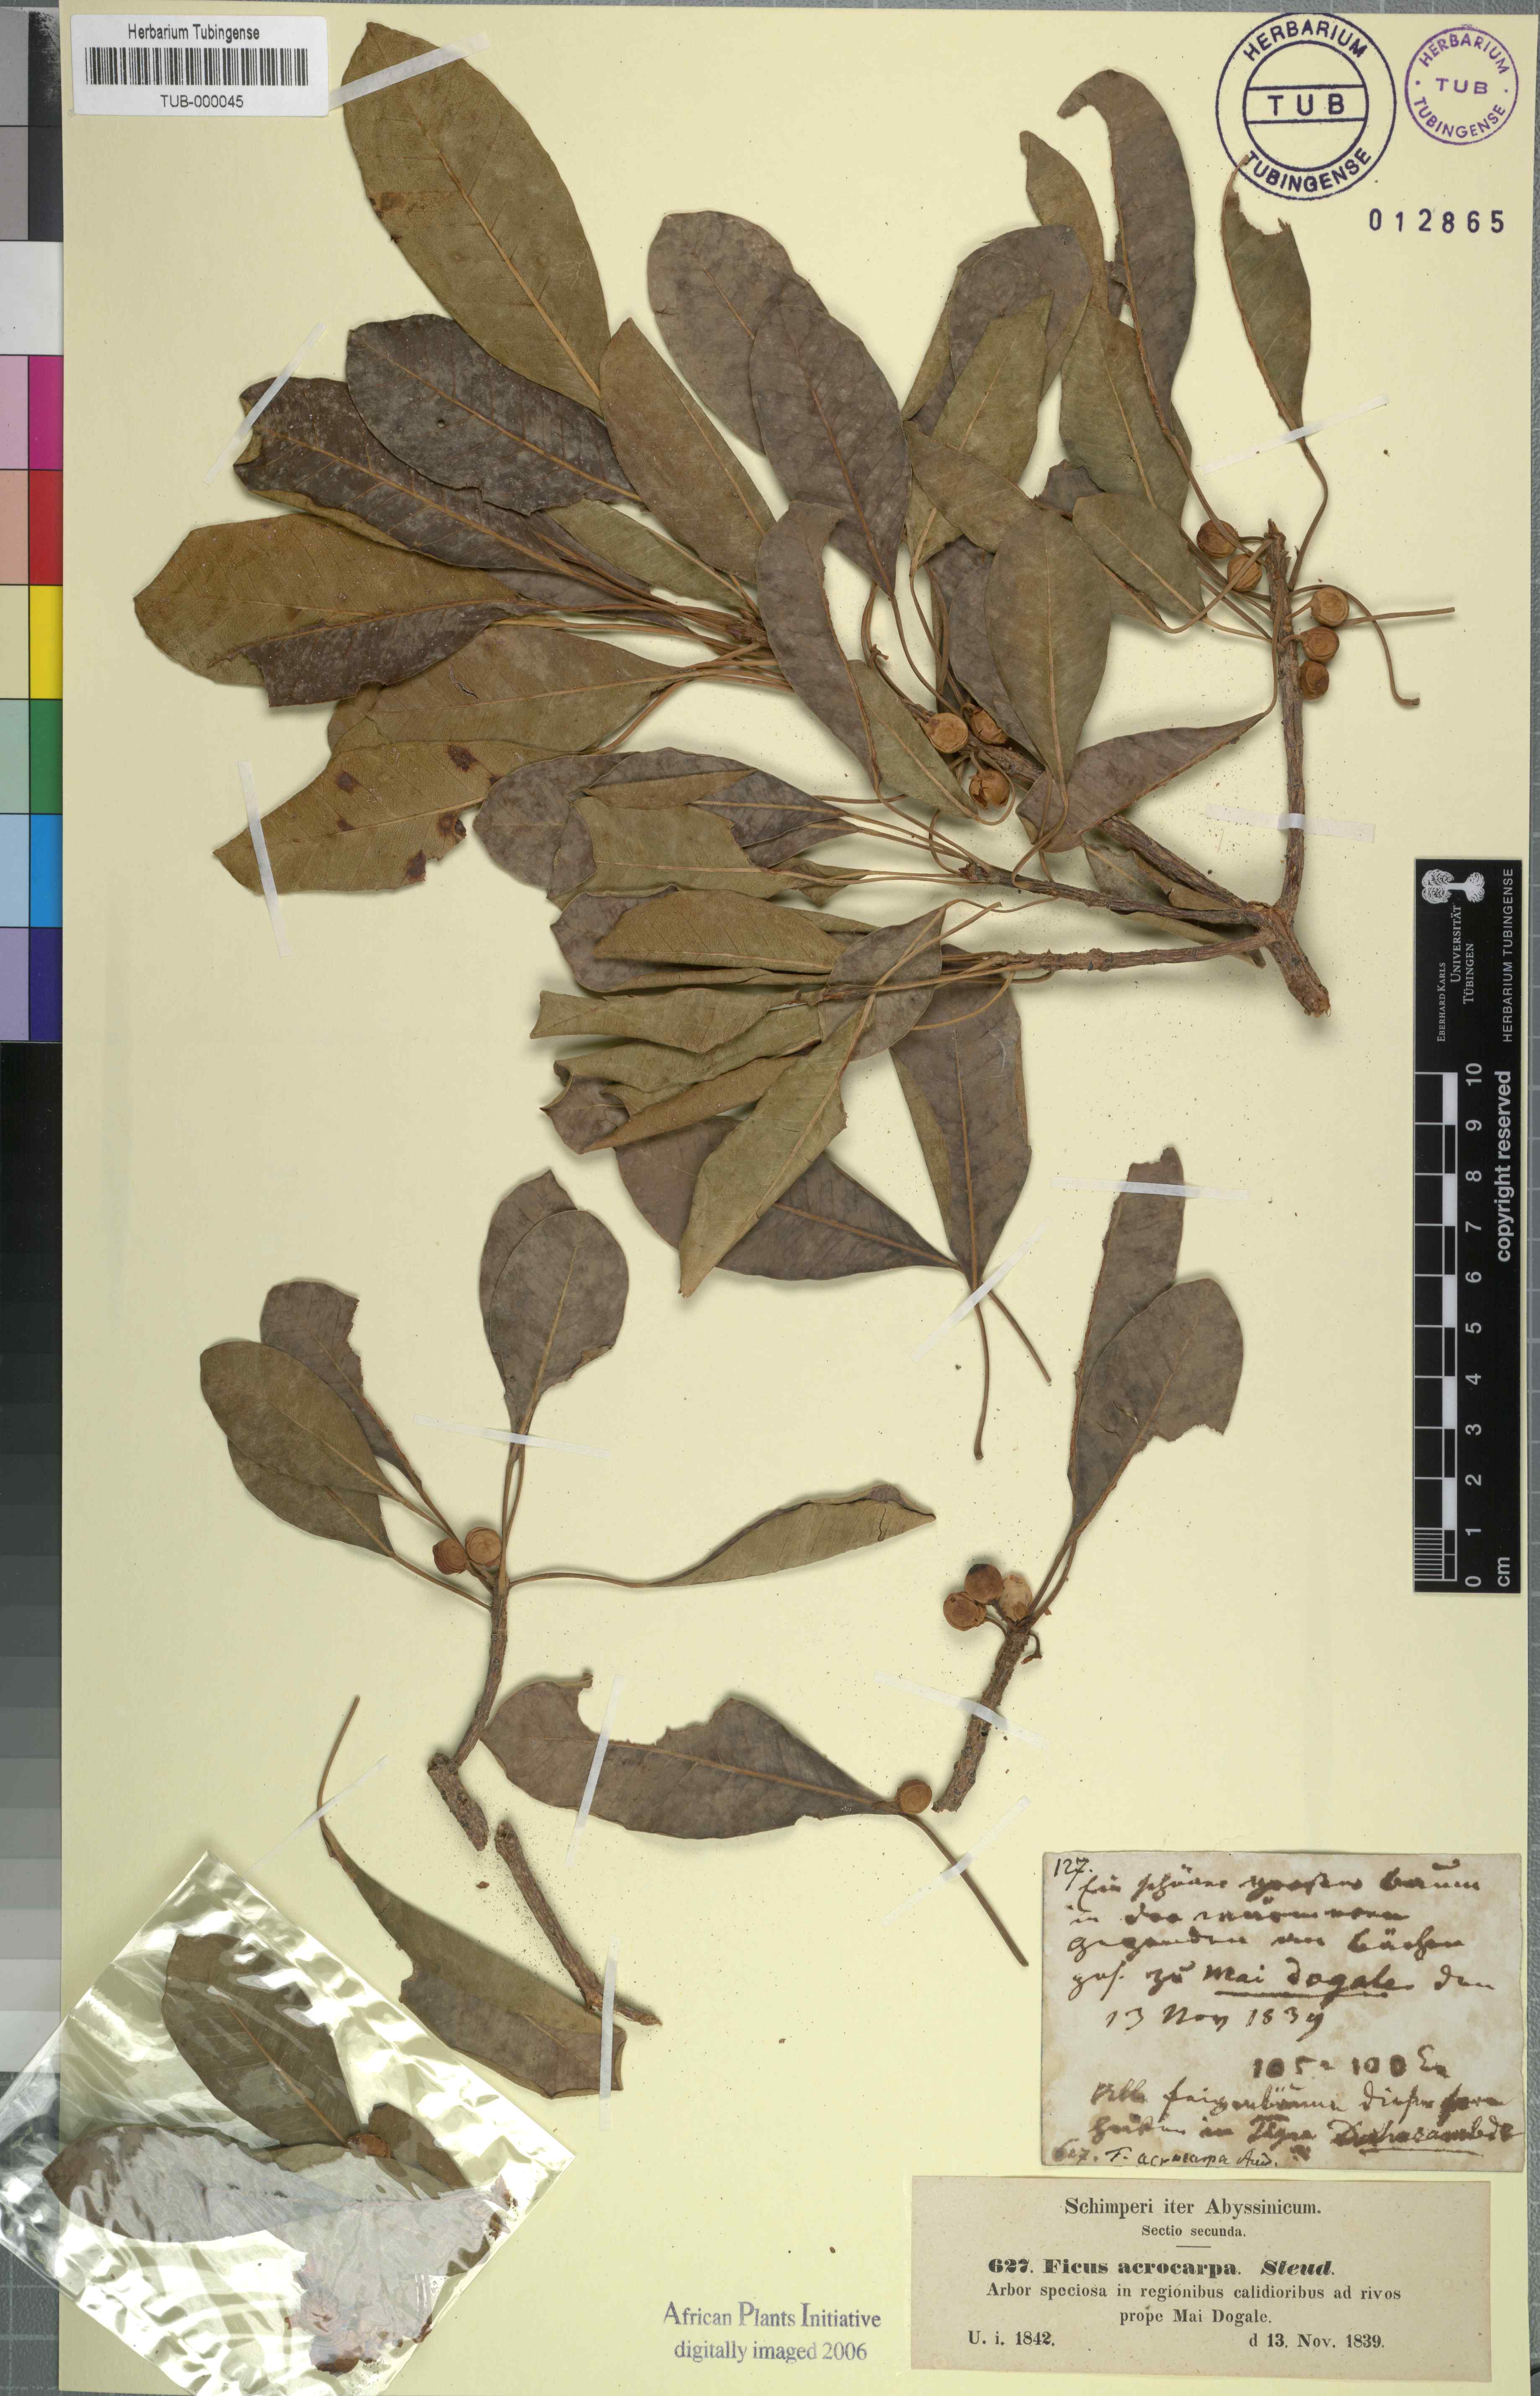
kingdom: Plantae
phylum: Tracheophyta
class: Magnoliopsida
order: Rosales
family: Moraceae
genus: Ficus
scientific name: Ficus thonningii
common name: Fig
